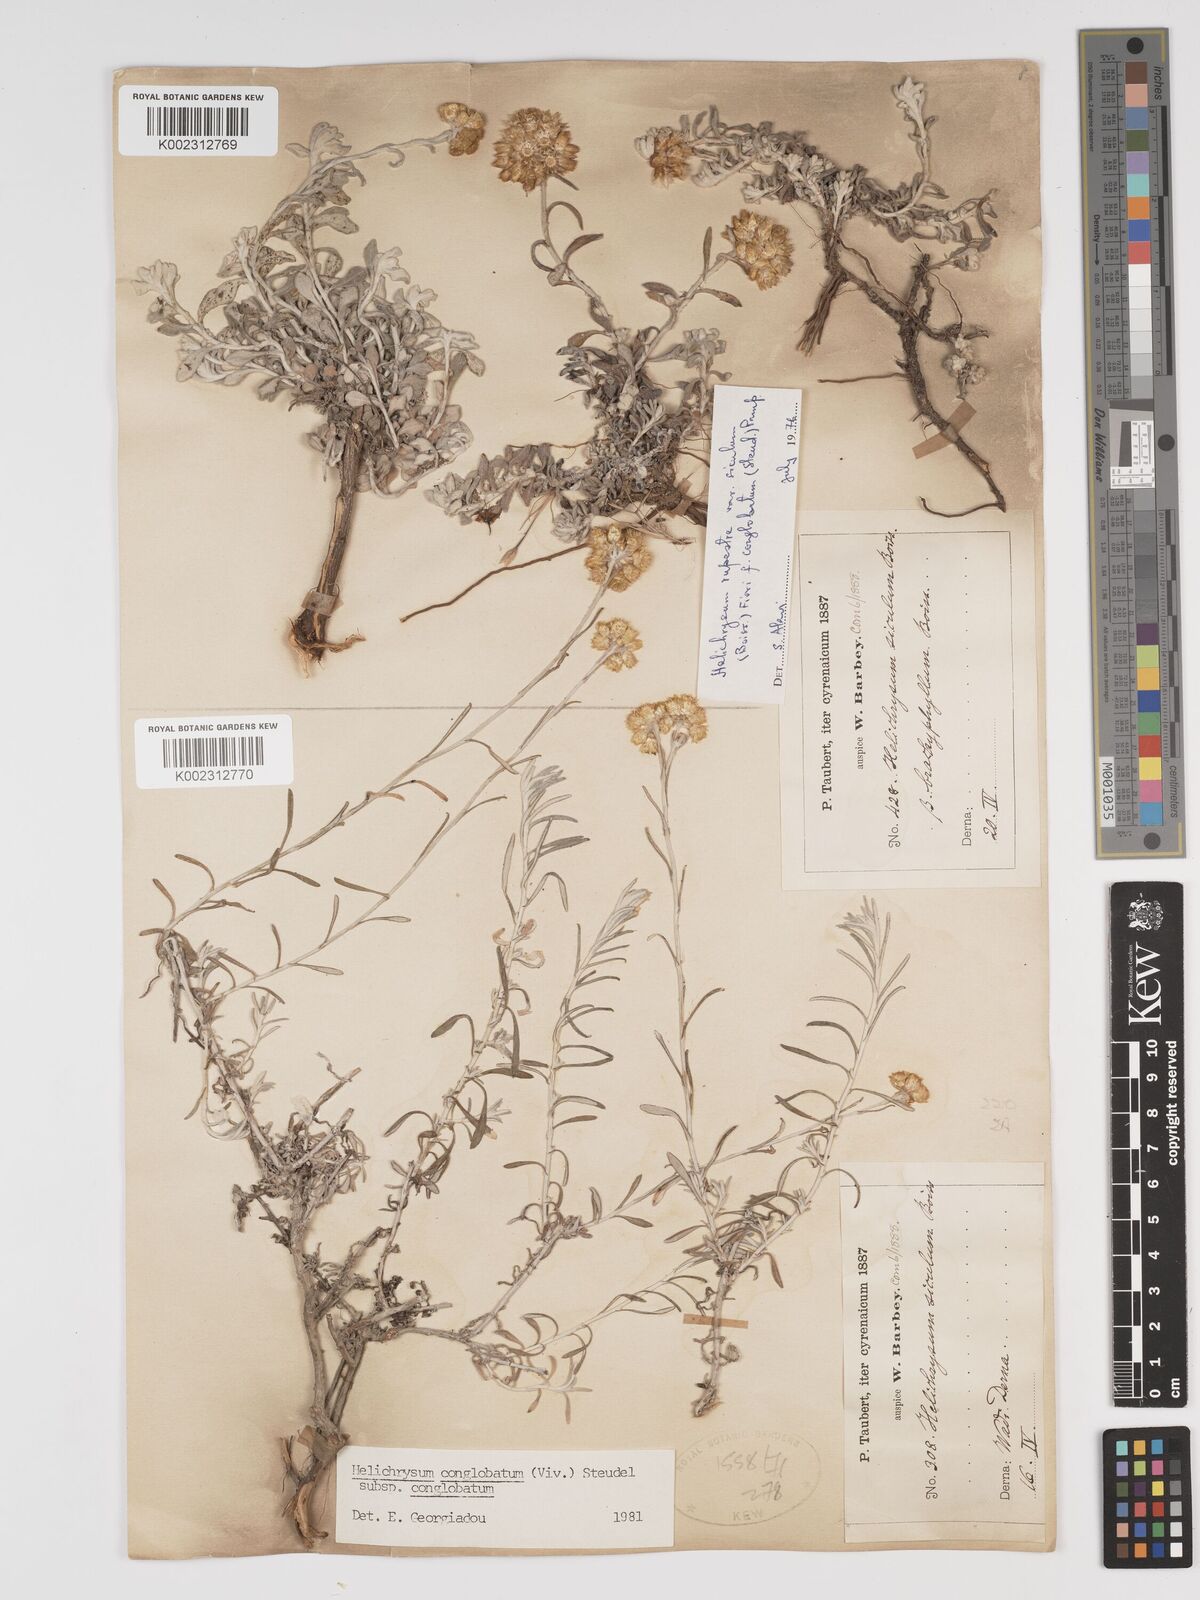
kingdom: Plantae
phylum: Tracheophyta
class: Magnoliopsida
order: Asterales
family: Asteraceae
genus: Helichrysum
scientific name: Helichrysum stoechas
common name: Goldilocks
